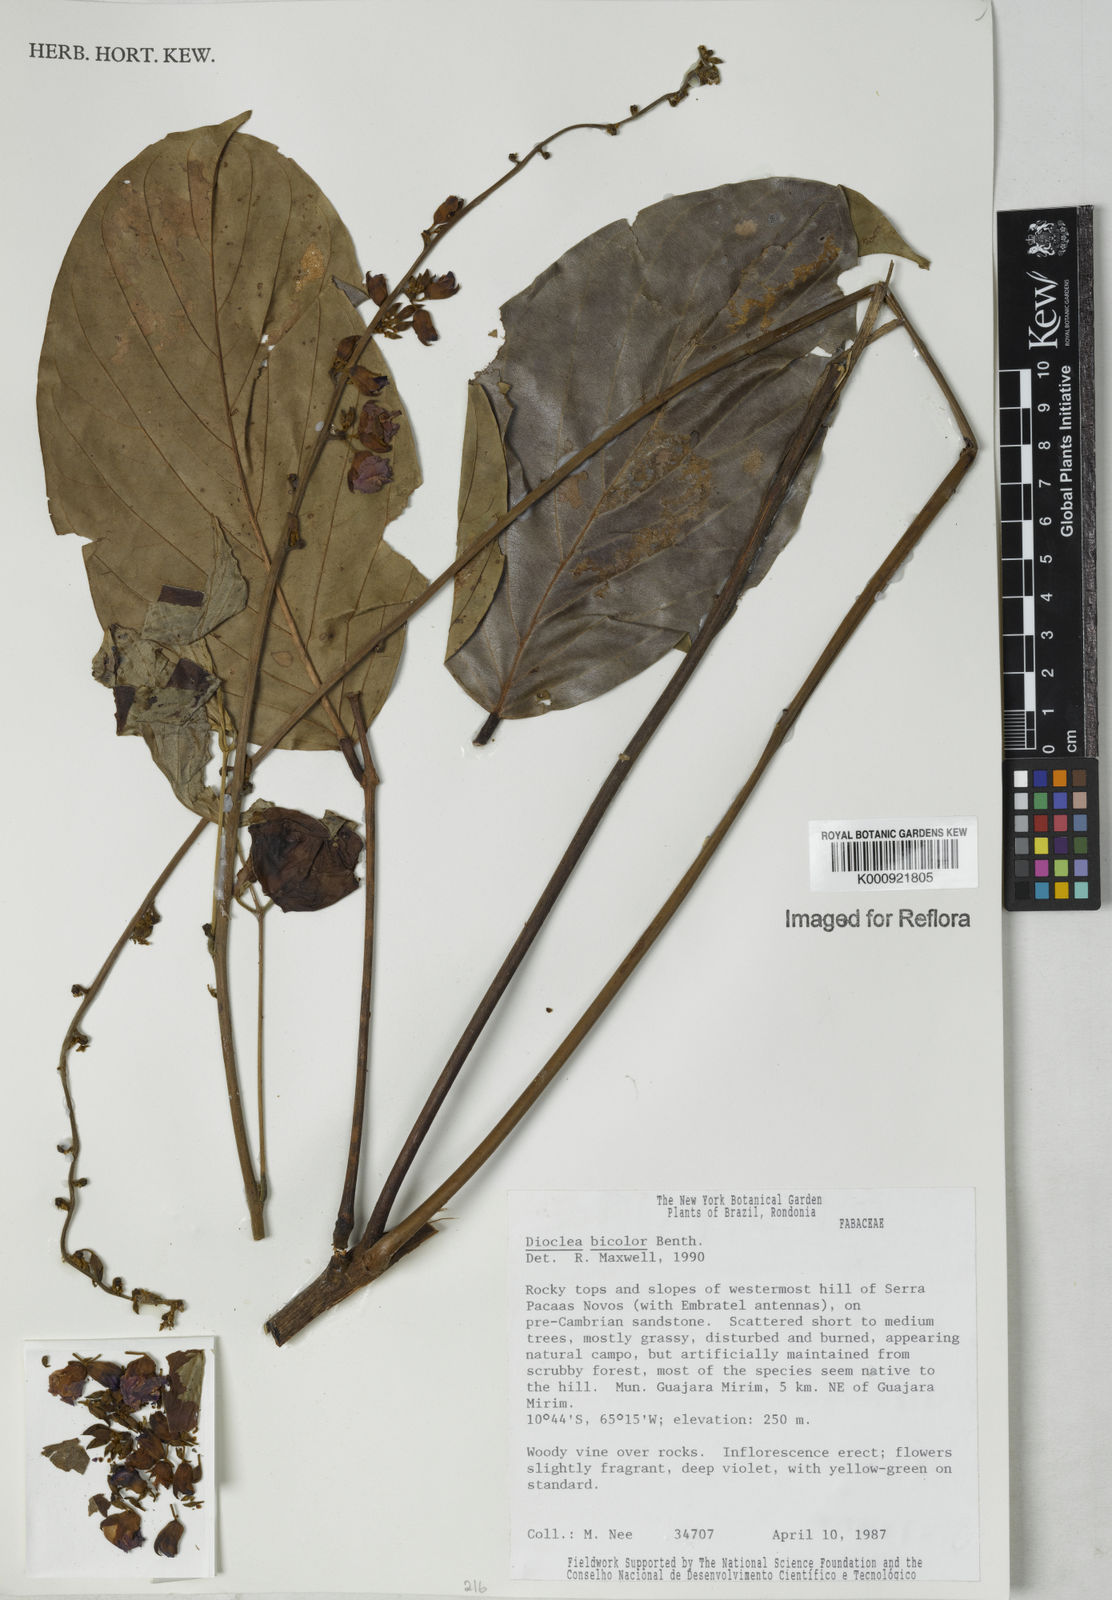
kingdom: Plantae
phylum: Tracheophyta
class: Magnoliopsida
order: Fabales
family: Fabaceae
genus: Macropsychanthus
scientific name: Macropsychanthus bicolor
